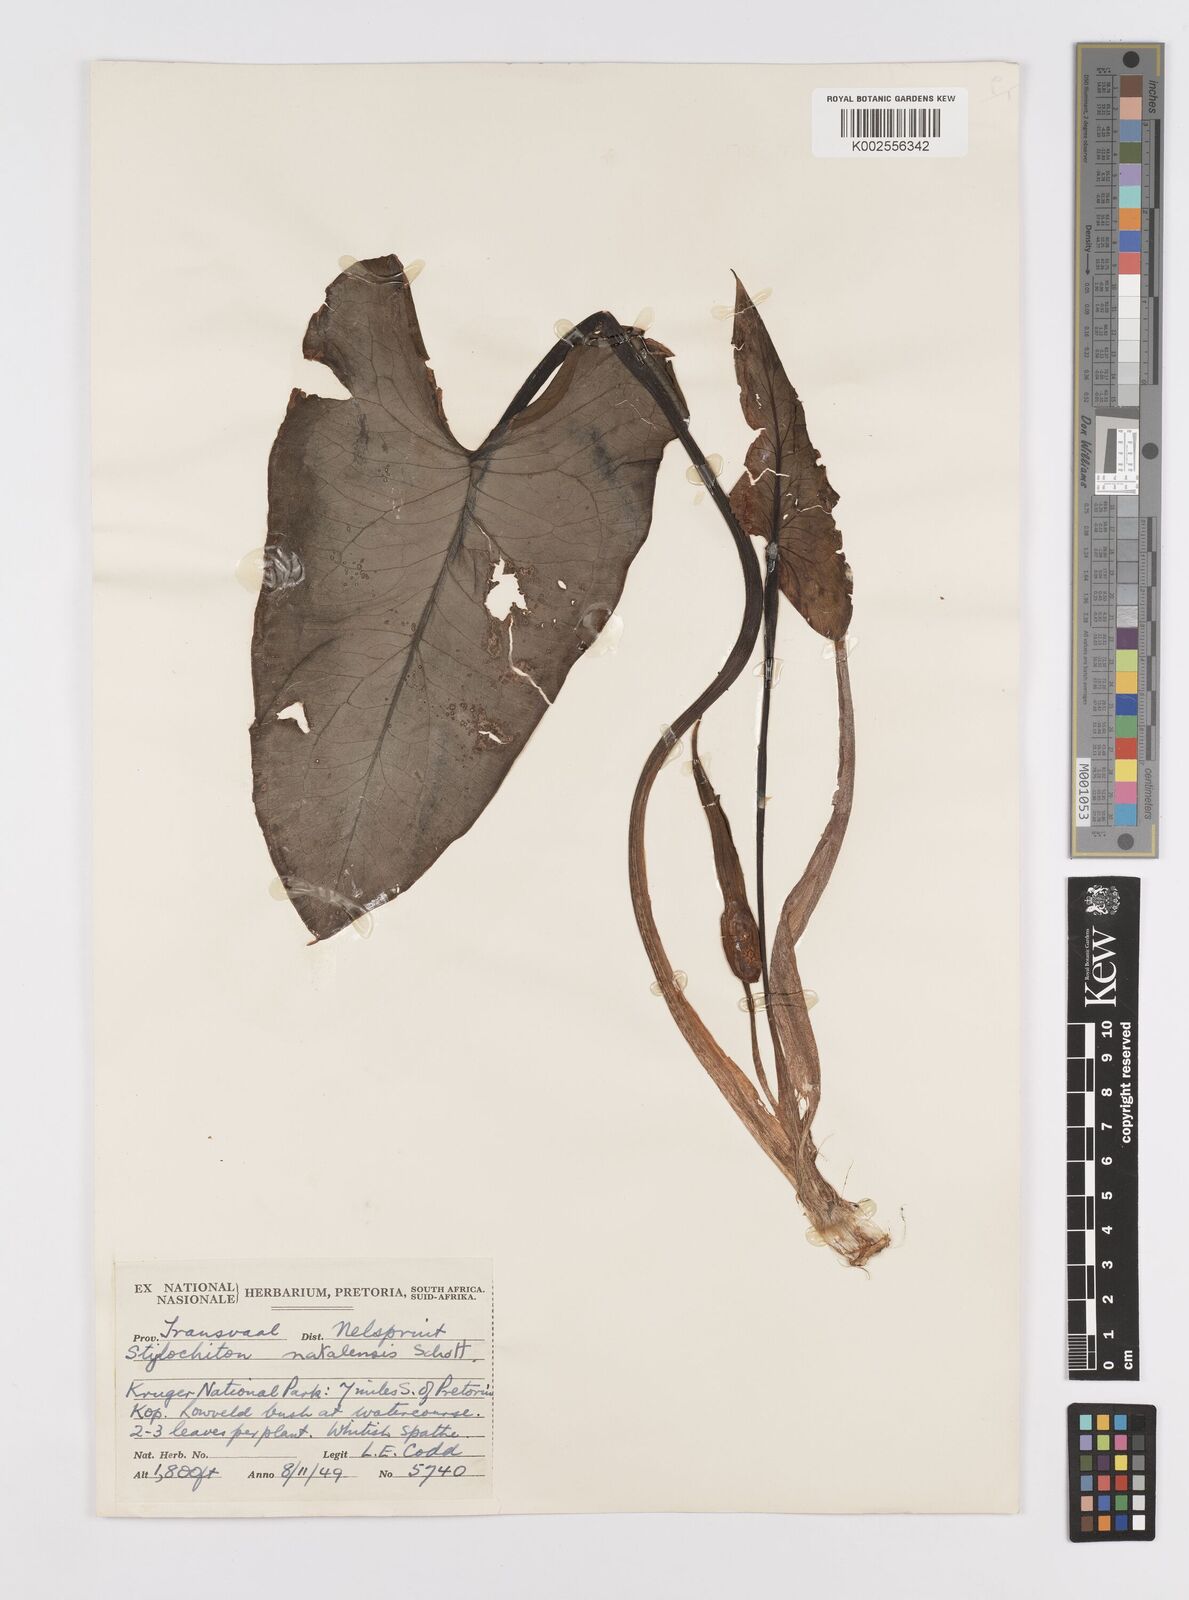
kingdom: Plantae
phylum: Tracheophyta
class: Liliopsida
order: Alismatales
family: Araceae
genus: Stylochaeton
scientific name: Stylochaeton natalense
